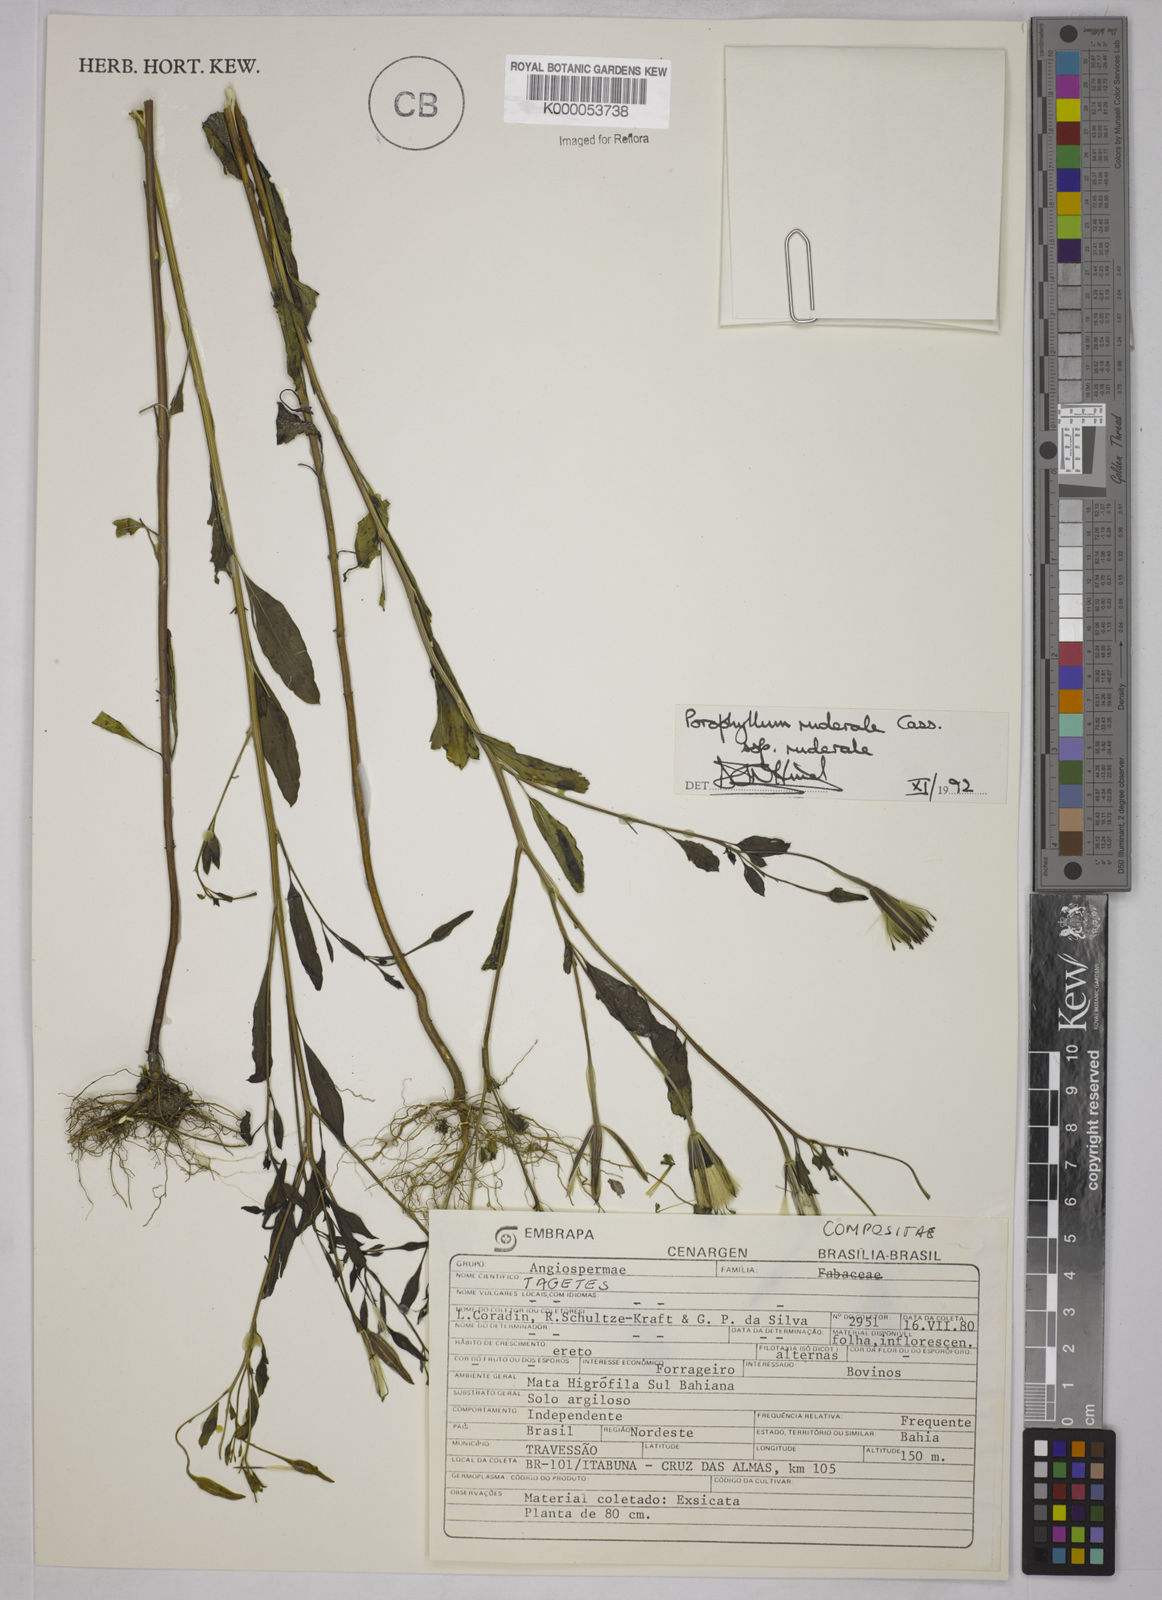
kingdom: Plantae
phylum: Tracheophyta
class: Magnoliopsida
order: Asterales
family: Asteraceae
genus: Porophyllum
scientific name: Porophyllum ruderale
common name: Yerba porosa
